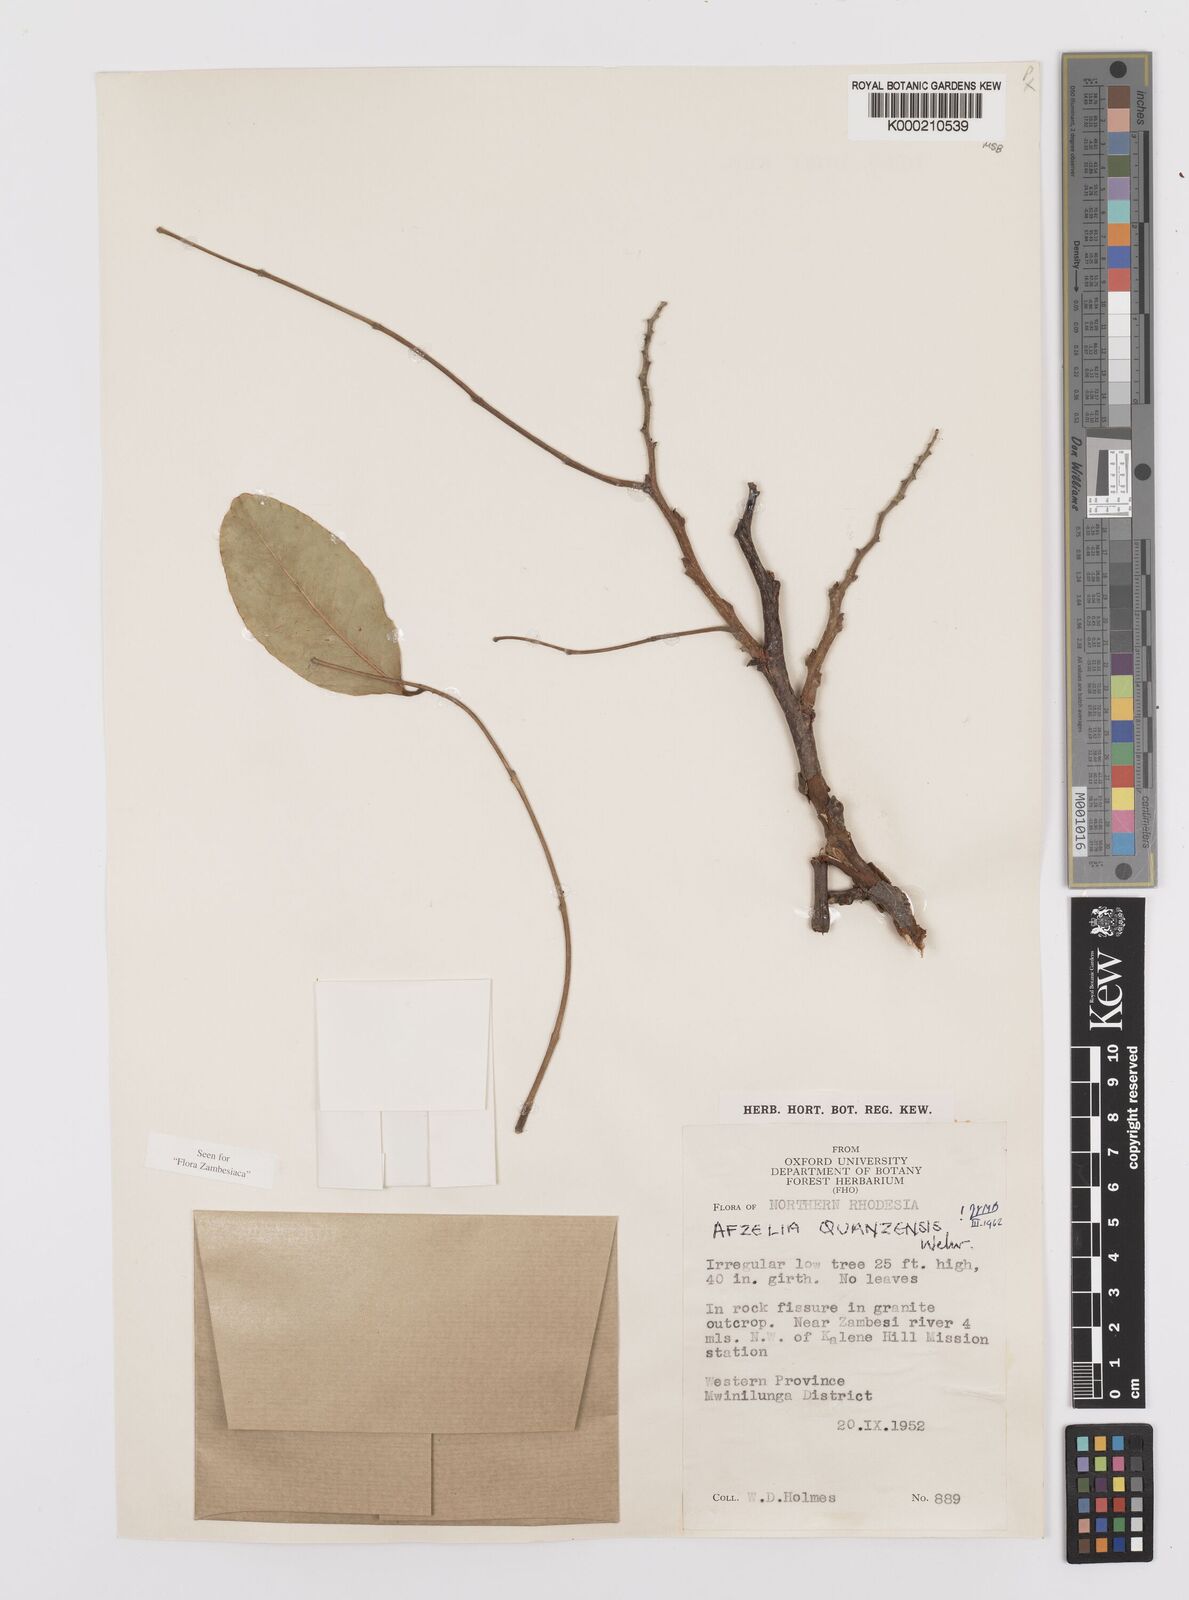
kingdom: Plantae
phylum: Tracheophyta
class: Magnoliopsida
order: Fabales
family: Fabaceae
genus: Afzelia
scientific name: Afzelia quanzensis
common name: Pod mahogany
